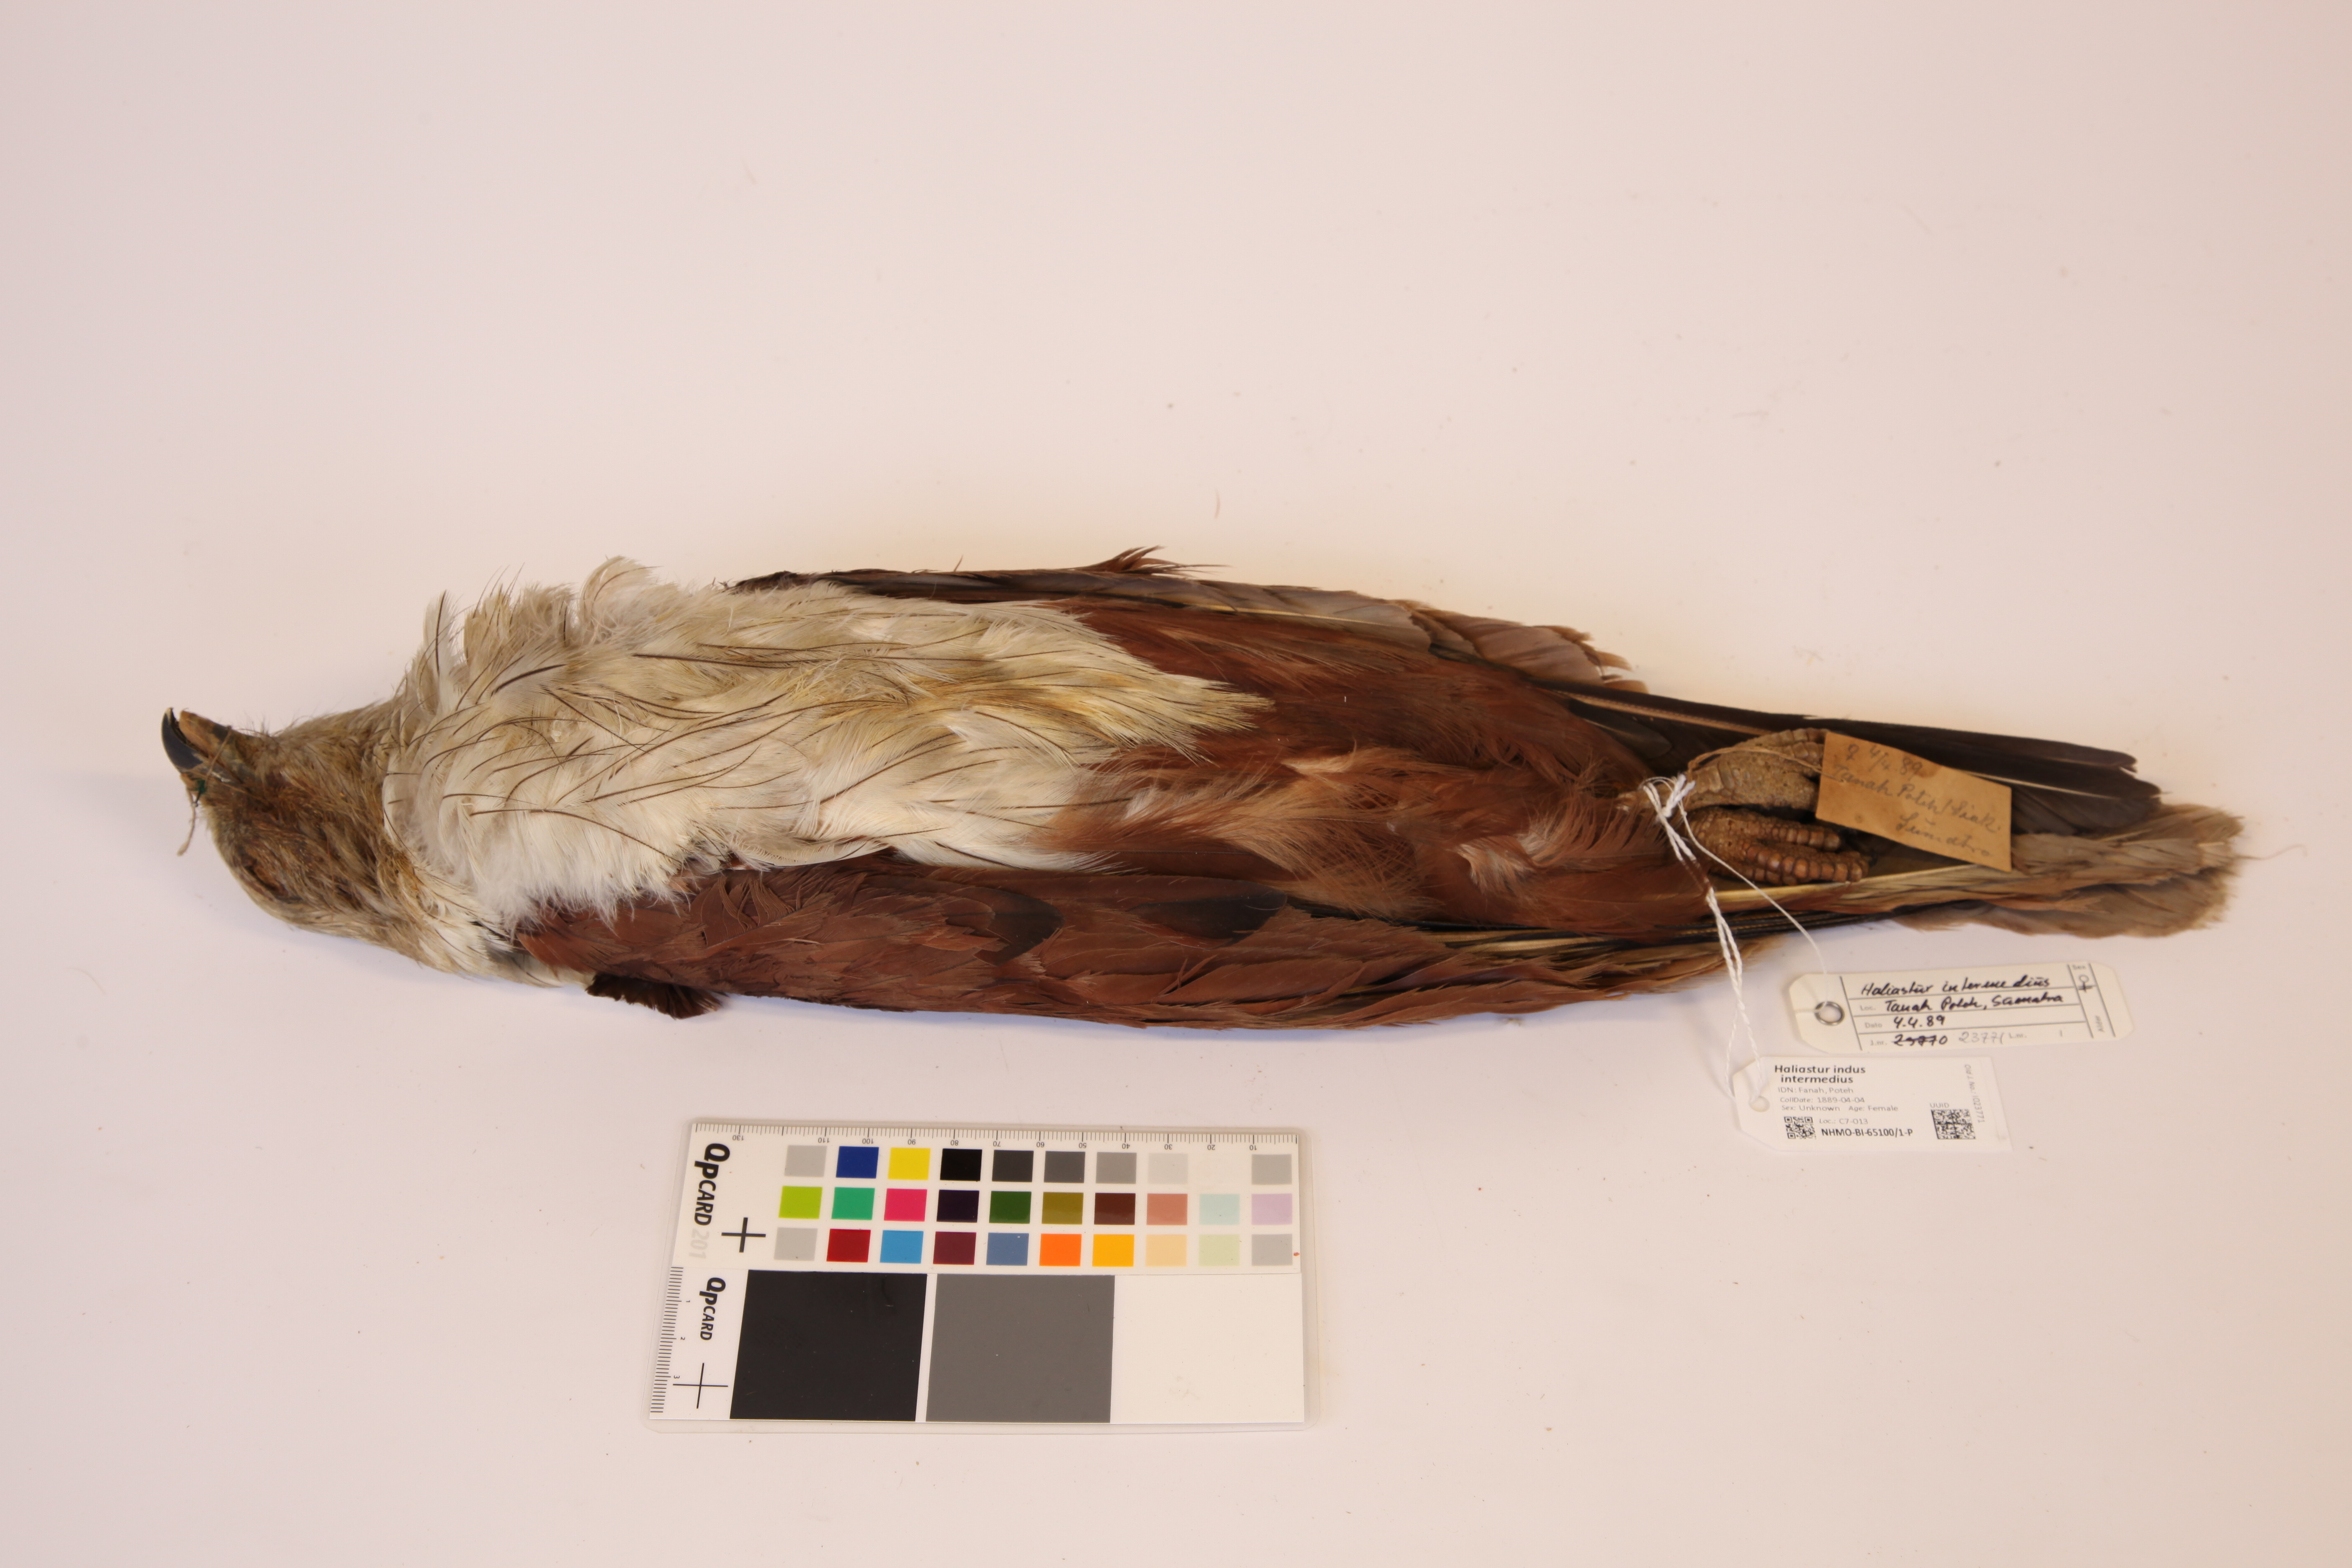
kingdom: Animalia
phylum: Chordata
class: Aves
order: Accipitriformes
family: Accipitridae
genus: Haliastur
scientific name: Haliastur indus
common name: Brahminy kite
